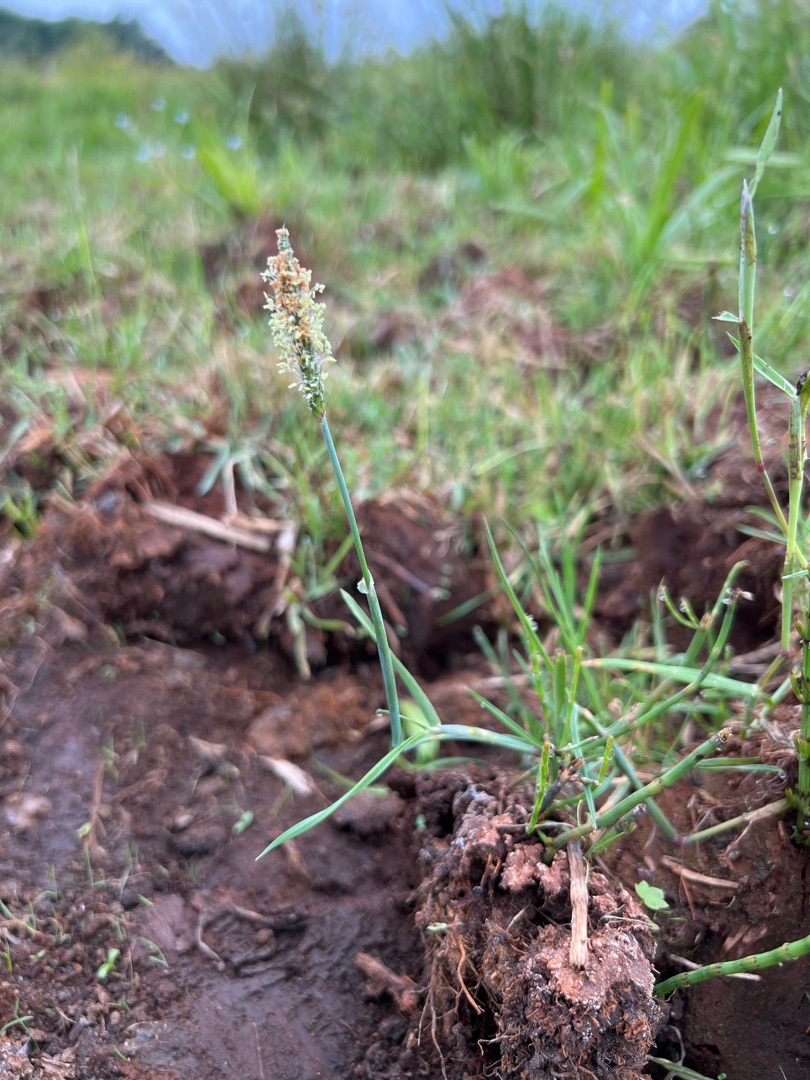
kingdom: Plantae
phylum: Tracheophyta
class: Liliopsida
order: Poales
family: Poaceae
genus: Alopecurus
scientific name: Alopecurus geniculatus
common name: Knæbøjet rævehale
